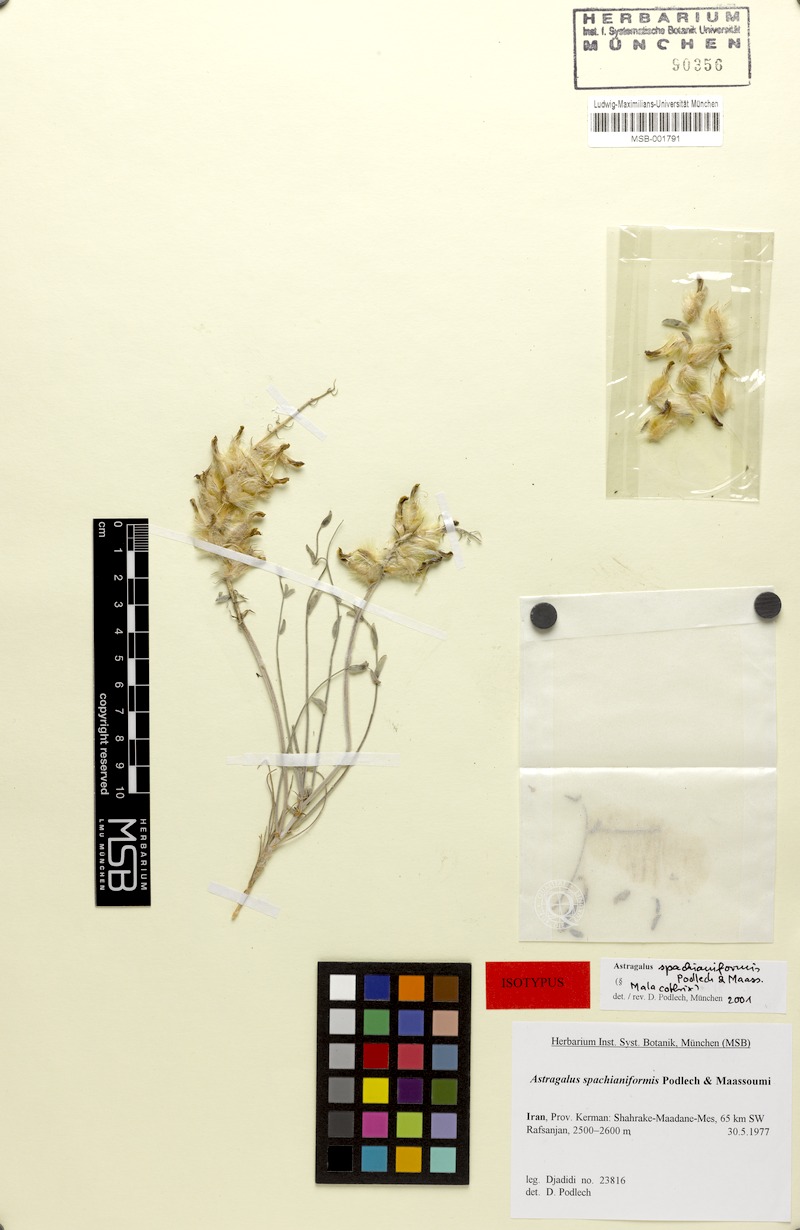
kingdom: Plantae
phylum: Tracheophyta
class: Magnoliopsida
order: Fabales
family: Fabaceae
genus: Astragalus
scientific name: Astragalus spachianiformis
